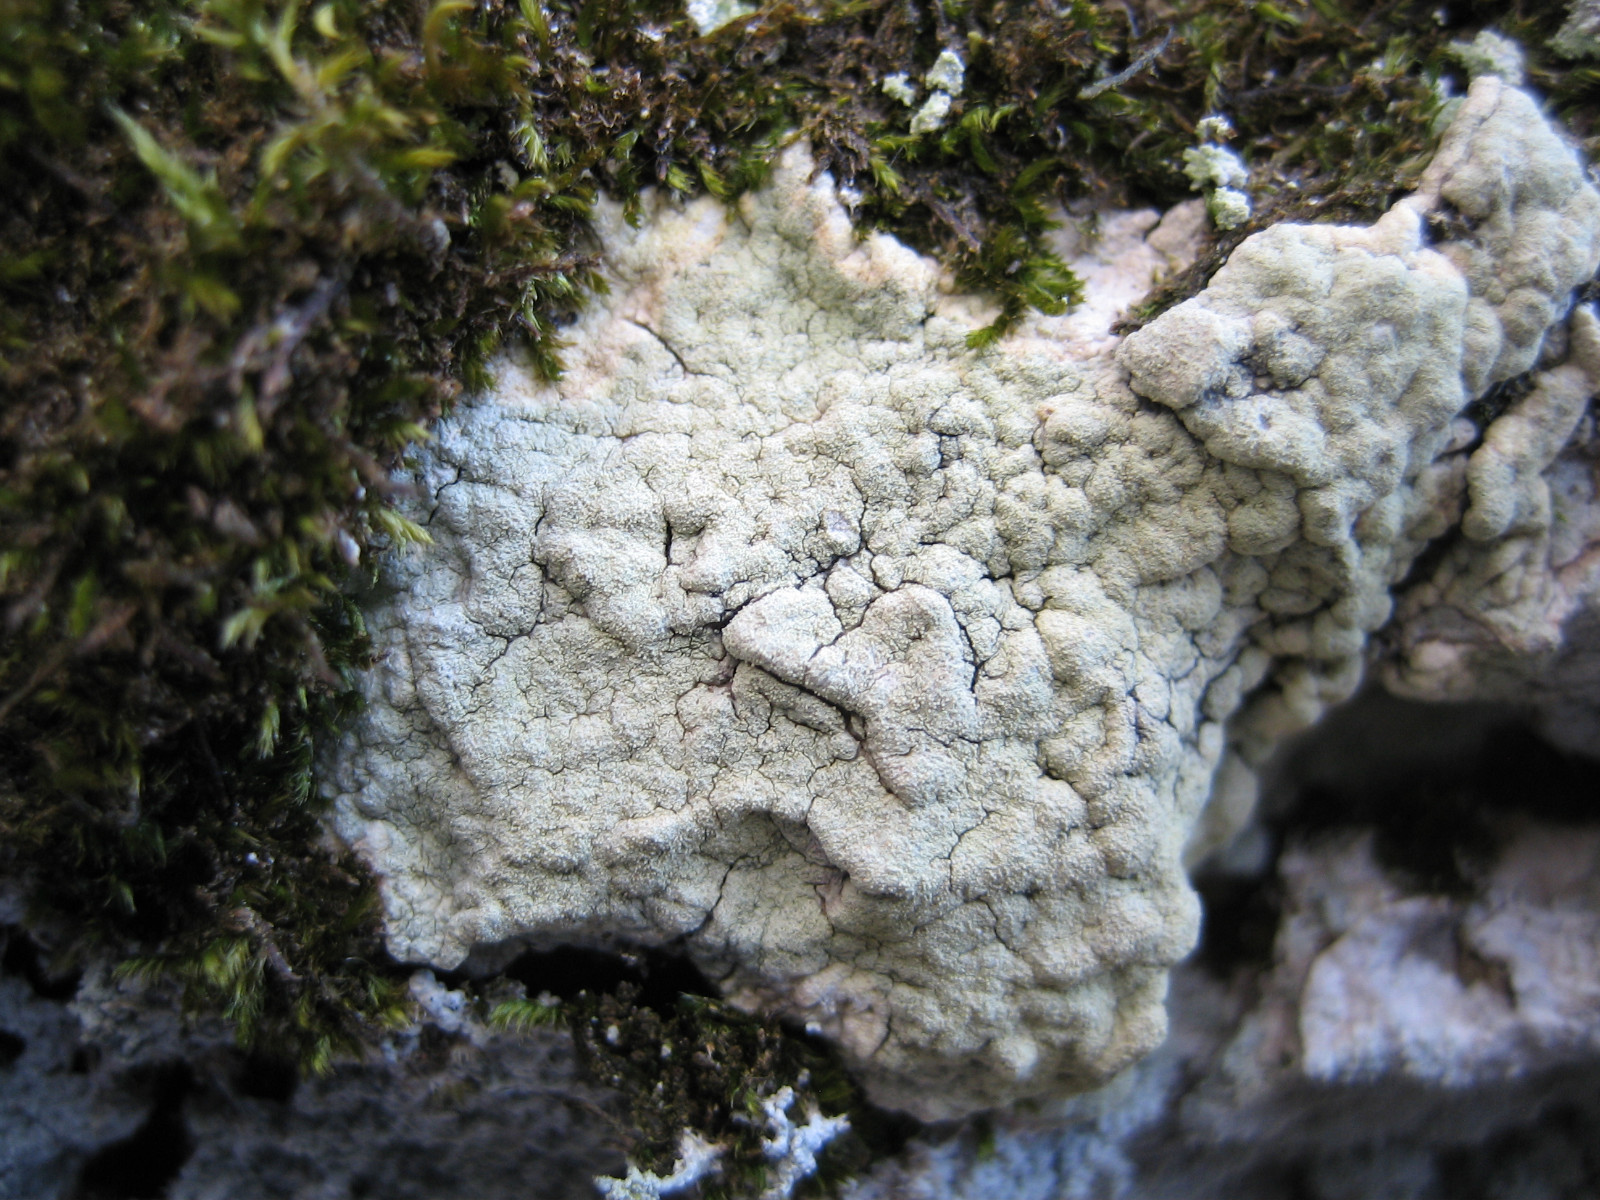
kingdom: Fungi
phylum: Ascomycota
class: Lecanoromycetes
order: Pertusariales
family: Pertusariaceae
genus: Pertusaria
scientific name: Pertusaria flavida
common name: gul prikvortelav
